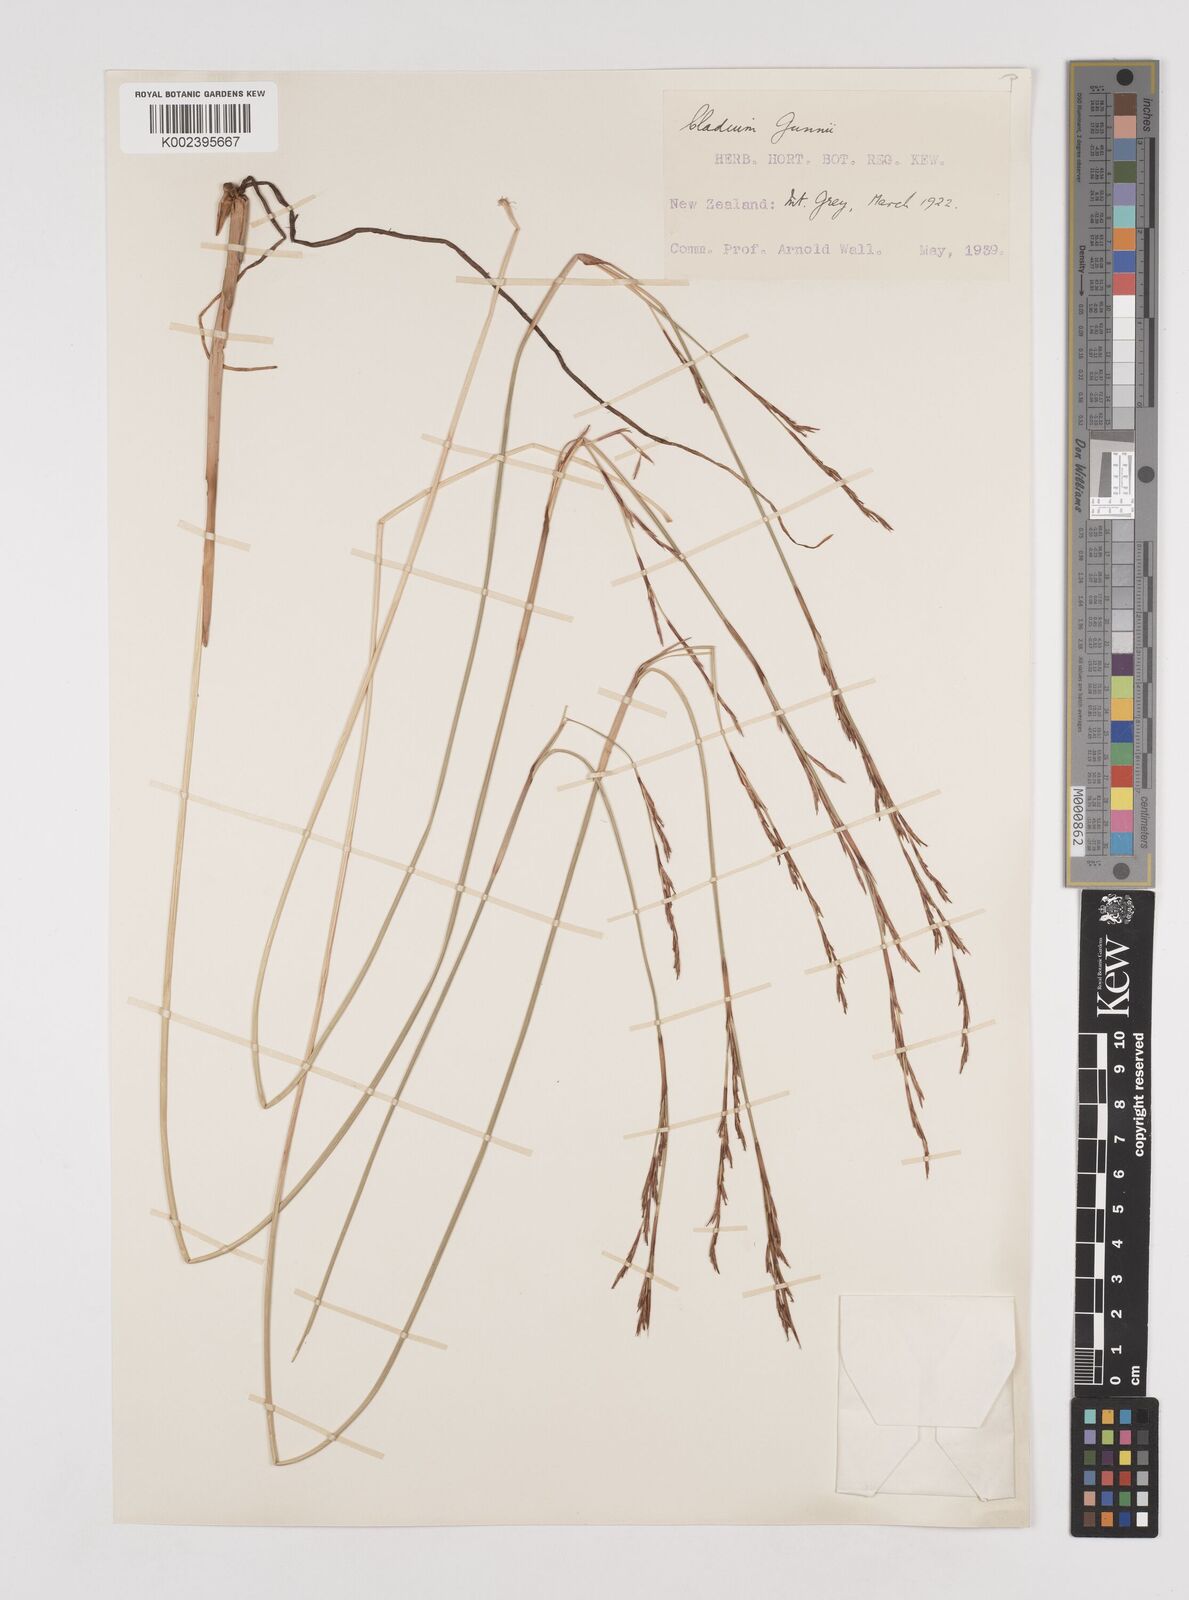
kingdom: Plantae
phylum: Tracheophyta
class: Liliopsida
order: Poales
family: Cyperaceae
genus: Machaerina
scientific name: Machaerina gunnii
